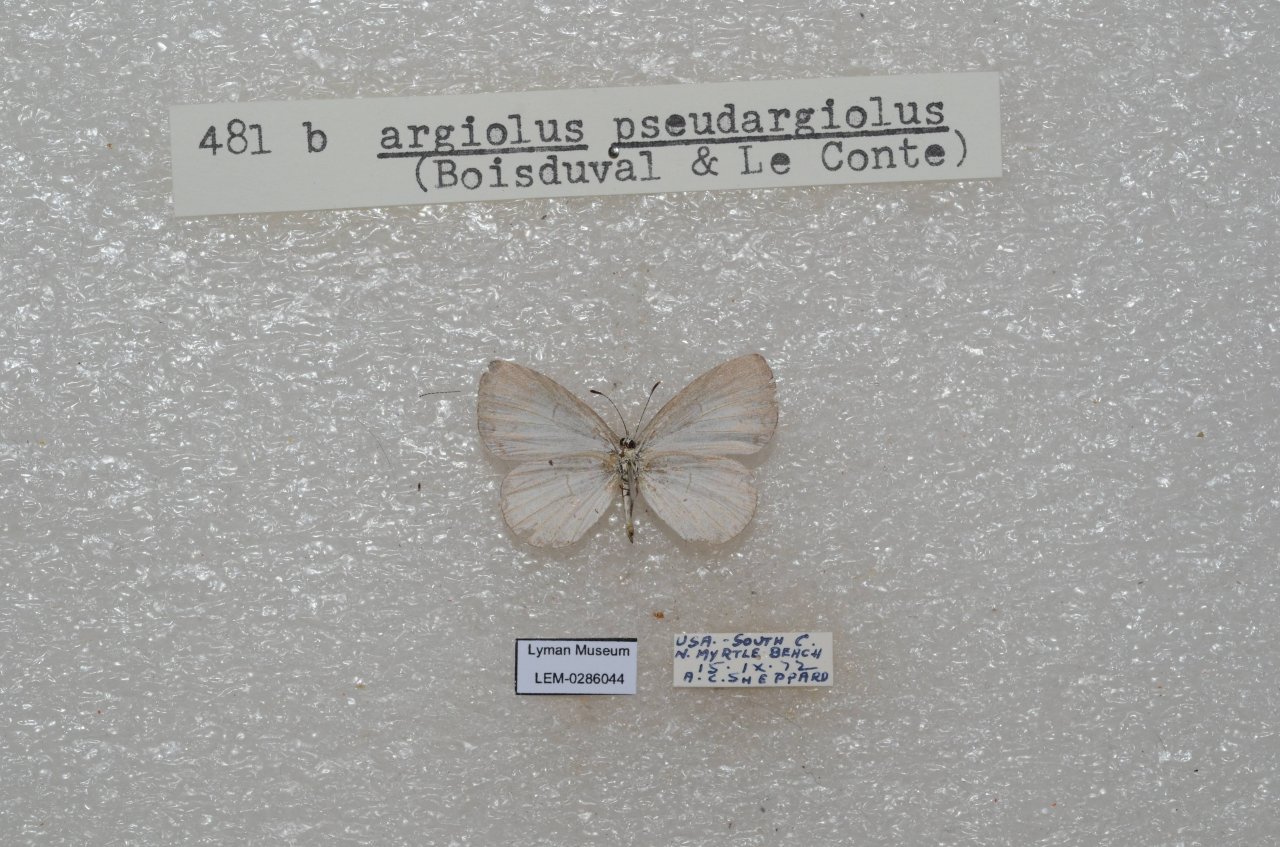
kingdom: Animalia
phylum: Arthropoda
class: Insecta
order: Lepidoptera
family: Lycaenidae
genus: Cyaniris
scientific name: Cyaniris neglecta
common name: Summer Azure
